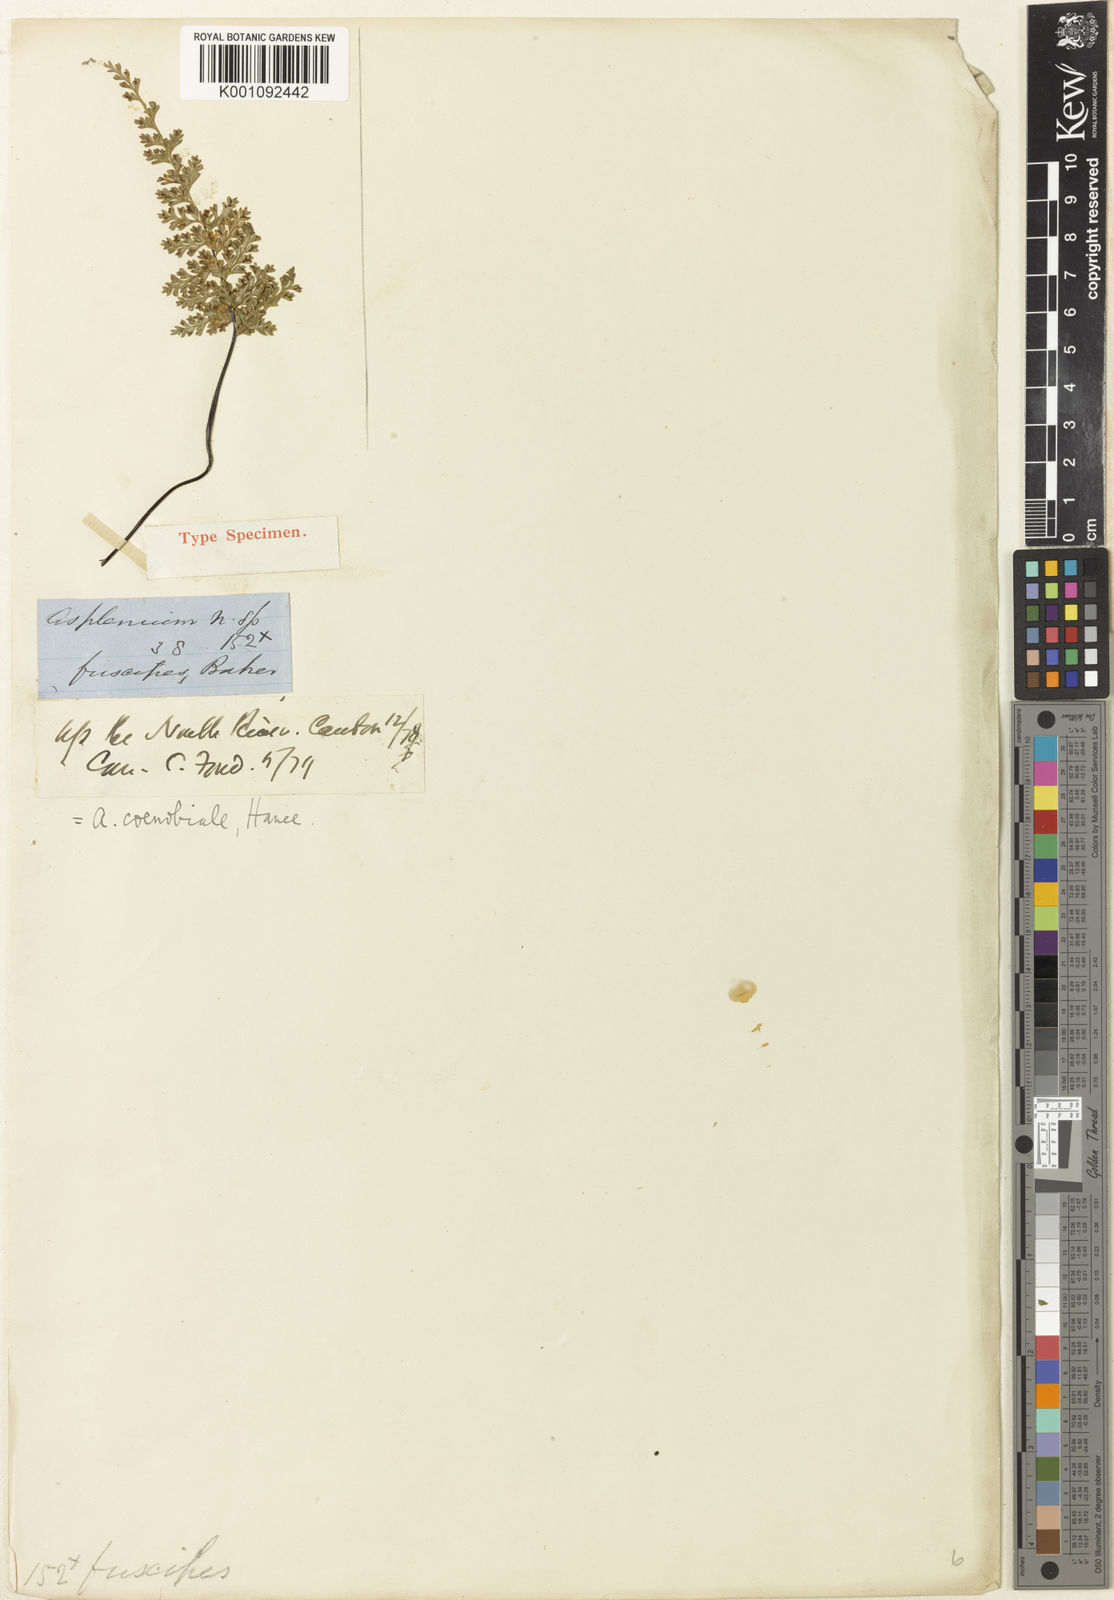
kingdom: Plantae
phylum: Tracheophyta
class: Polypodiopsida
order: Polypodiales
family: Aspleniaceae
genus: Asplenium
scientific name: Asplenium coenobiale
